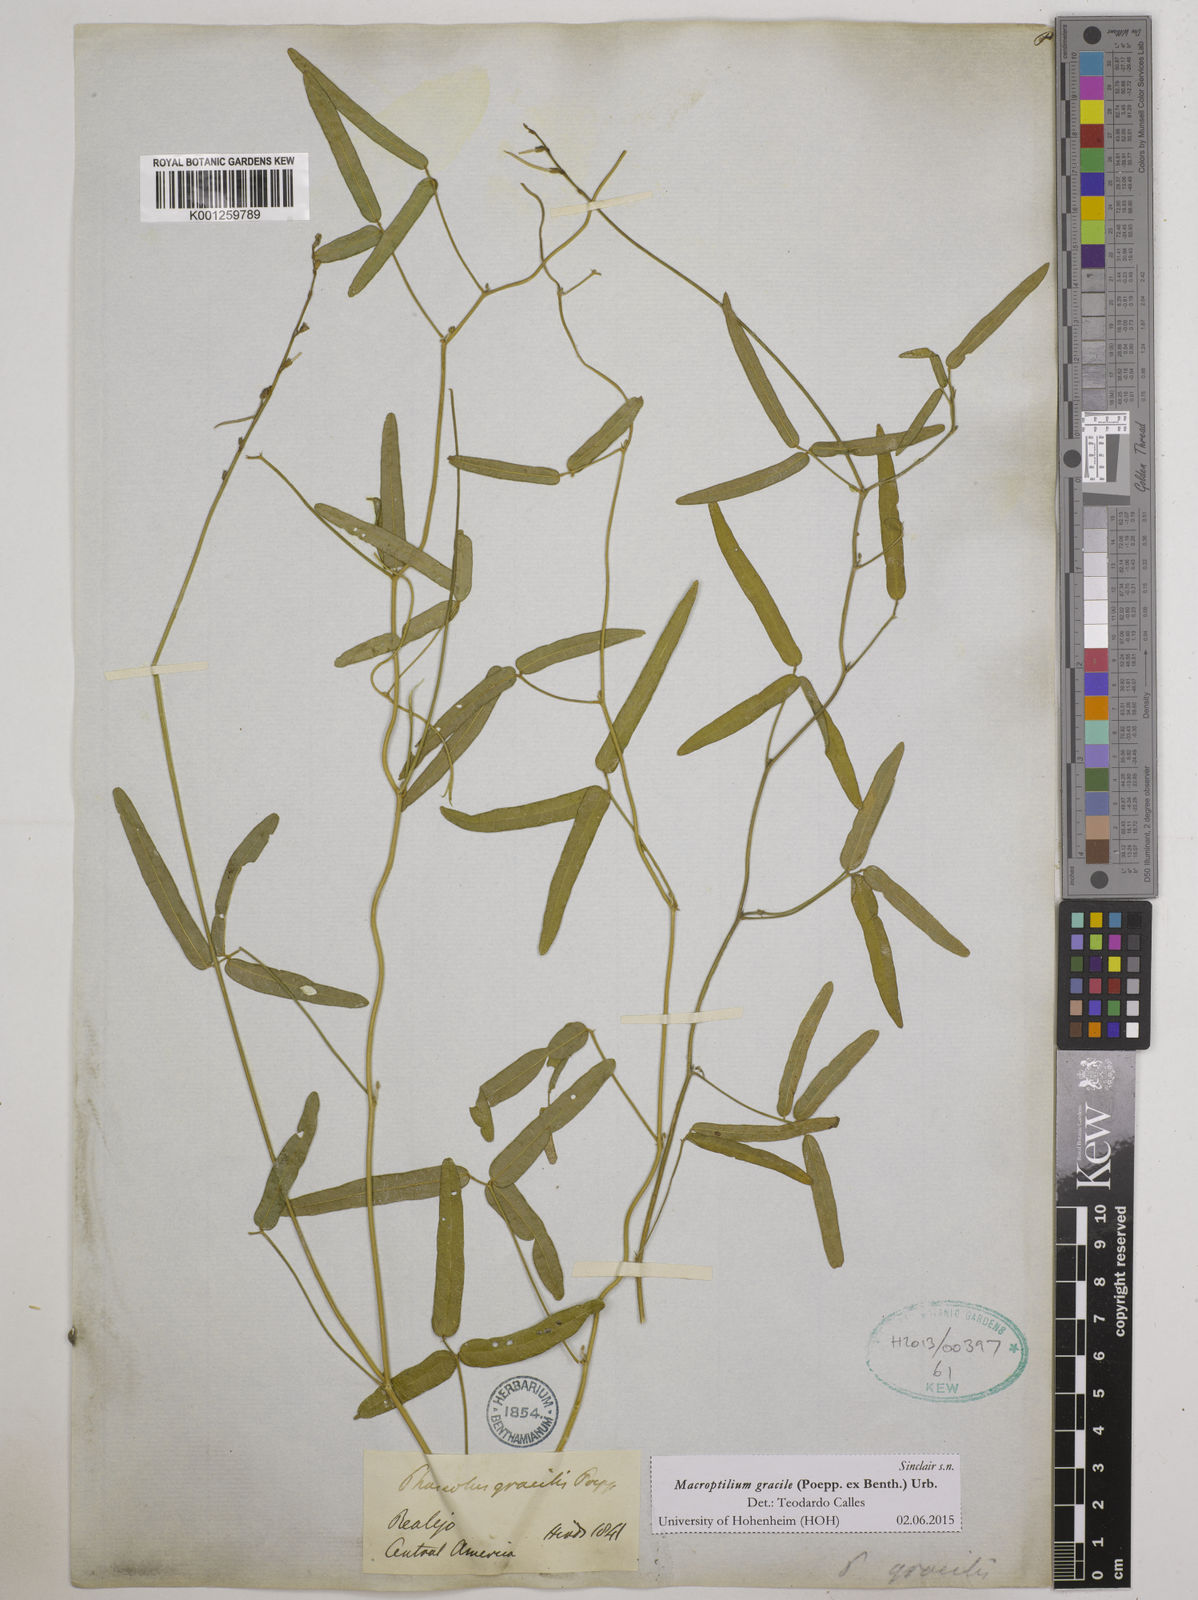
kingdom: Plantae
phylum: Tracheophyta
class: Magnoliopsida
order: Fabales
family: Fabaceae
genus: Macroptilium
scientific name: Macroptilium gracile
